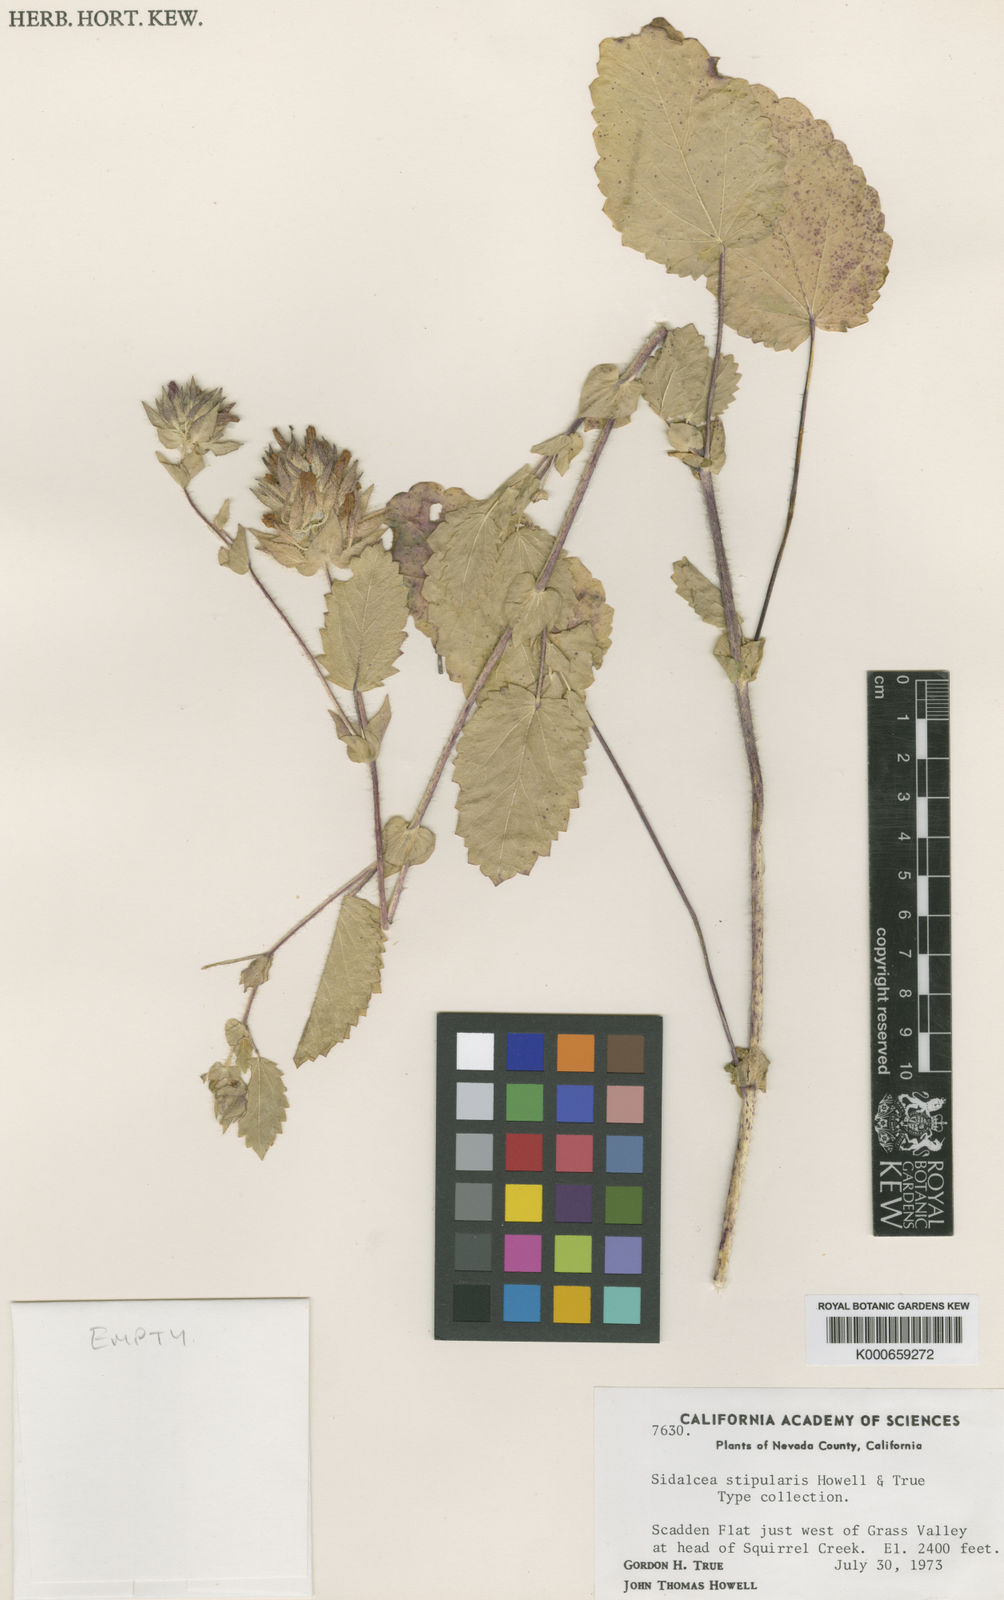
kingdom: Plantae
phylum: Tracheophyta
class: Magnoliopsida
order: Malvales
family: Malvaceae
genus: Sidalcea
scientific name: Sidalcea stipularis
